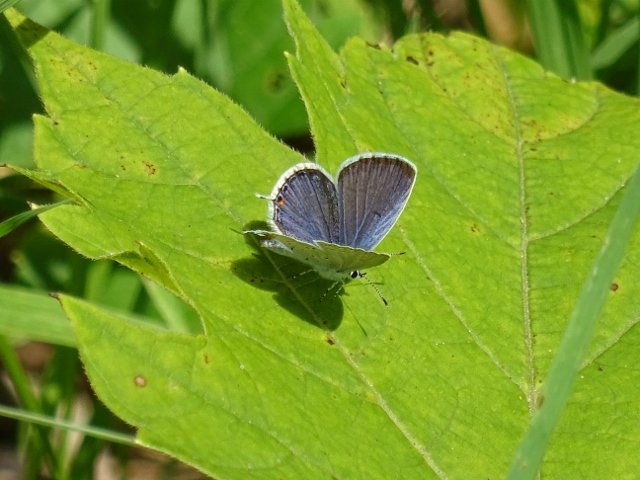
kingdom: Animalia
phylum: Arthropoda
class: Insecta
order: Lepidoptera
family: Lycaenidae
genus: Elkalyce
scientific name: Elkalyce comyntas
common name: Eastern Tailed-Blue
